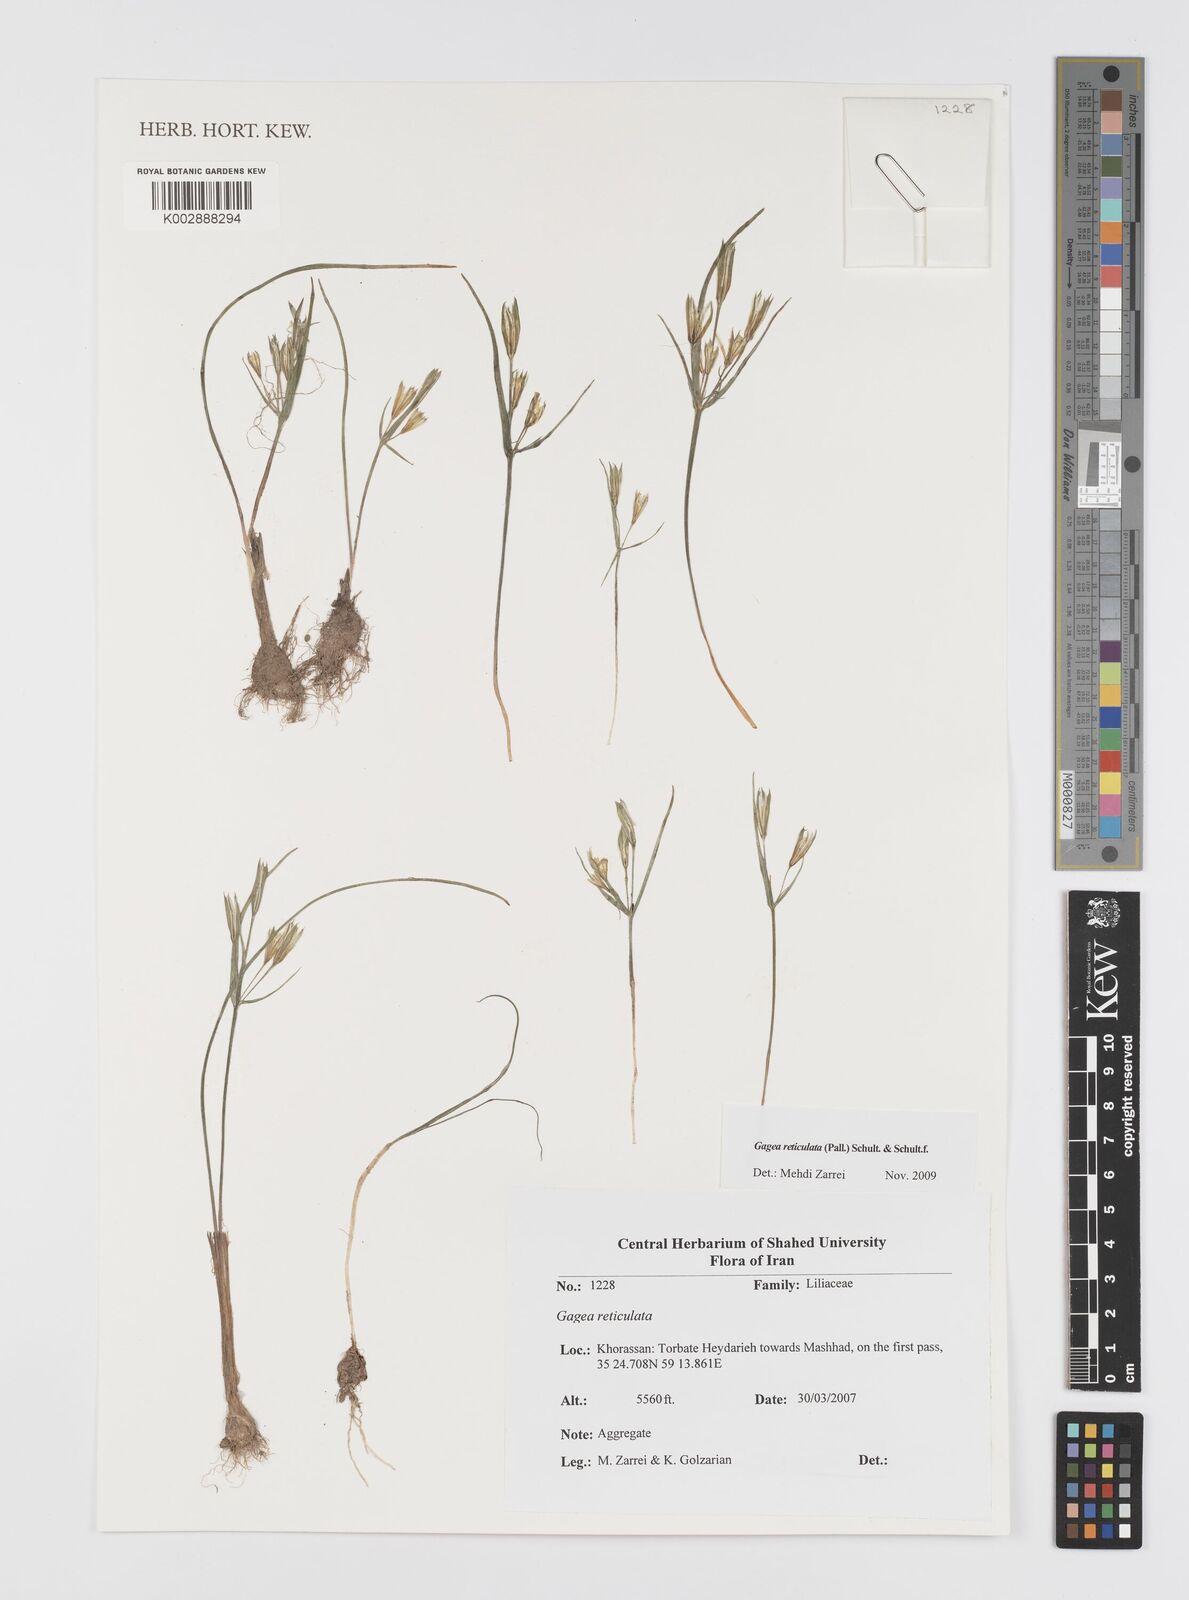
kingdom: Plantae
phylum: Tracheophyta
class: Liliopsida
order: Liliales
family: Liliaceae
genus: Gagea
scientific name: Gagea reticulata
